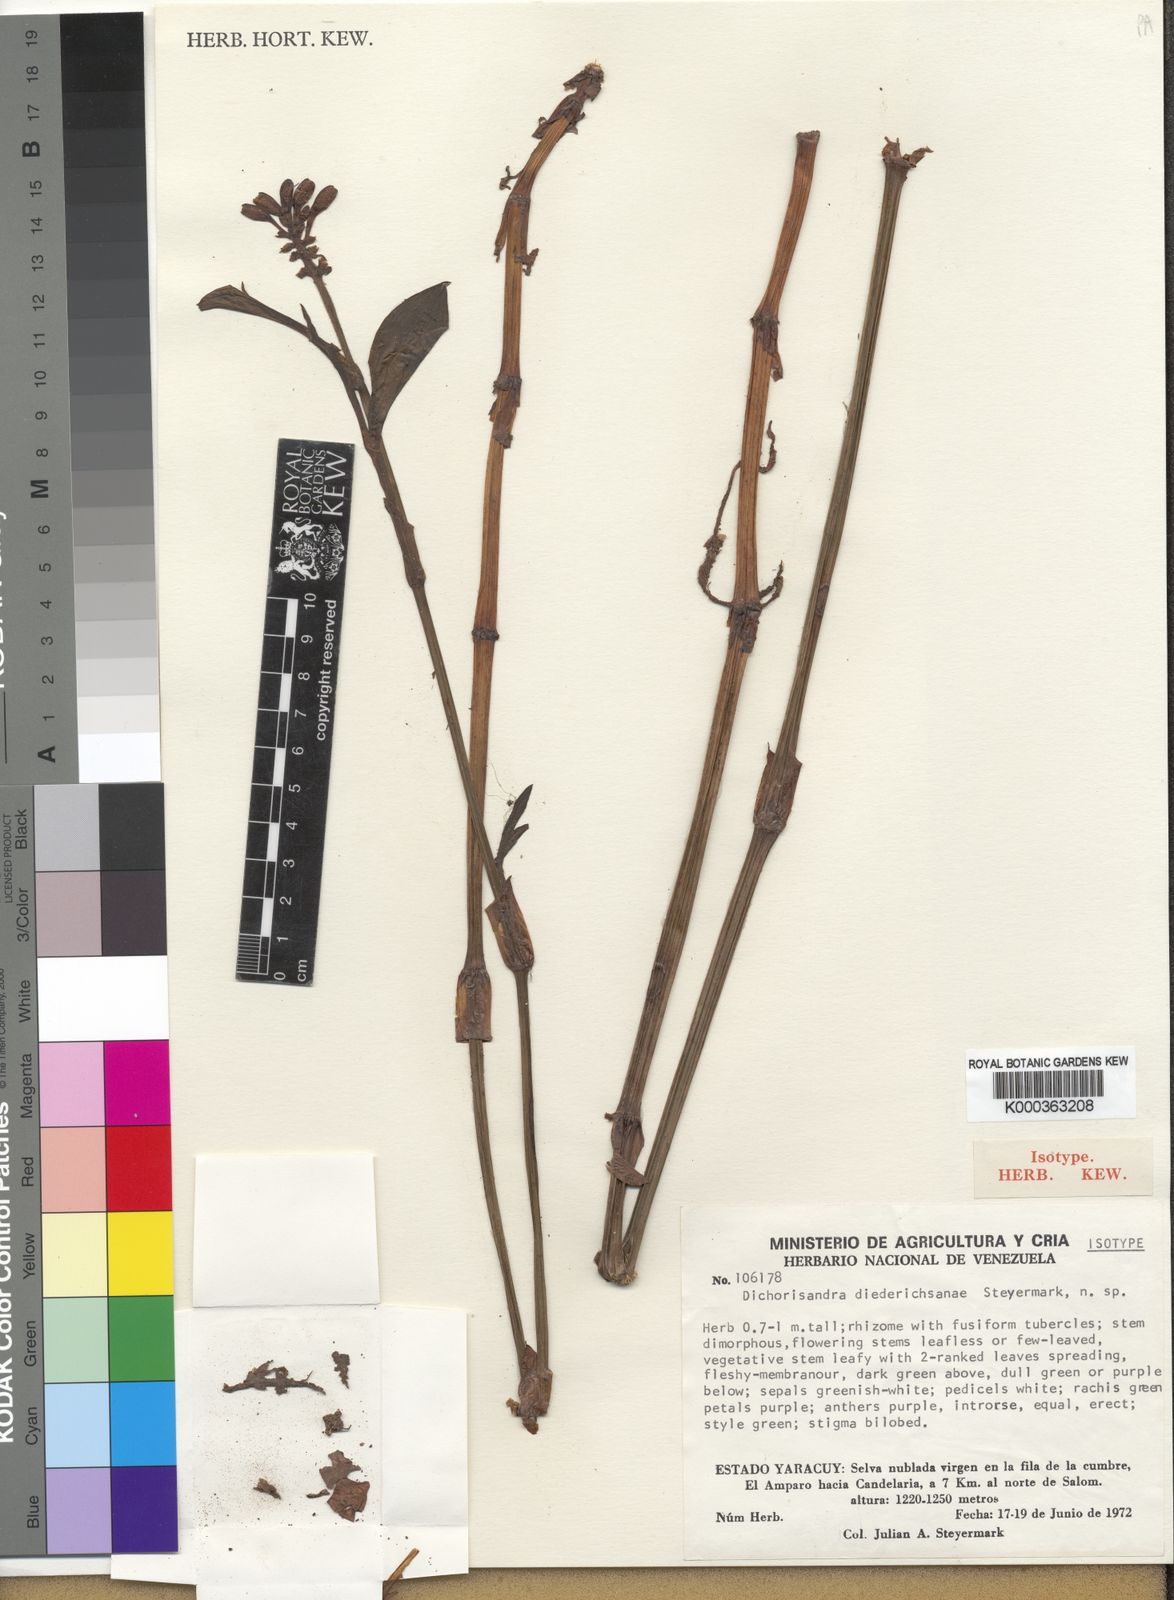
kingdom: Plantae
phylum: Tracheophyta
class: Liliopsida
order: Commelinales
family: Commelinaceae
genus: Dichorisandra
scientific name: Dichorisandra diederichsanae
